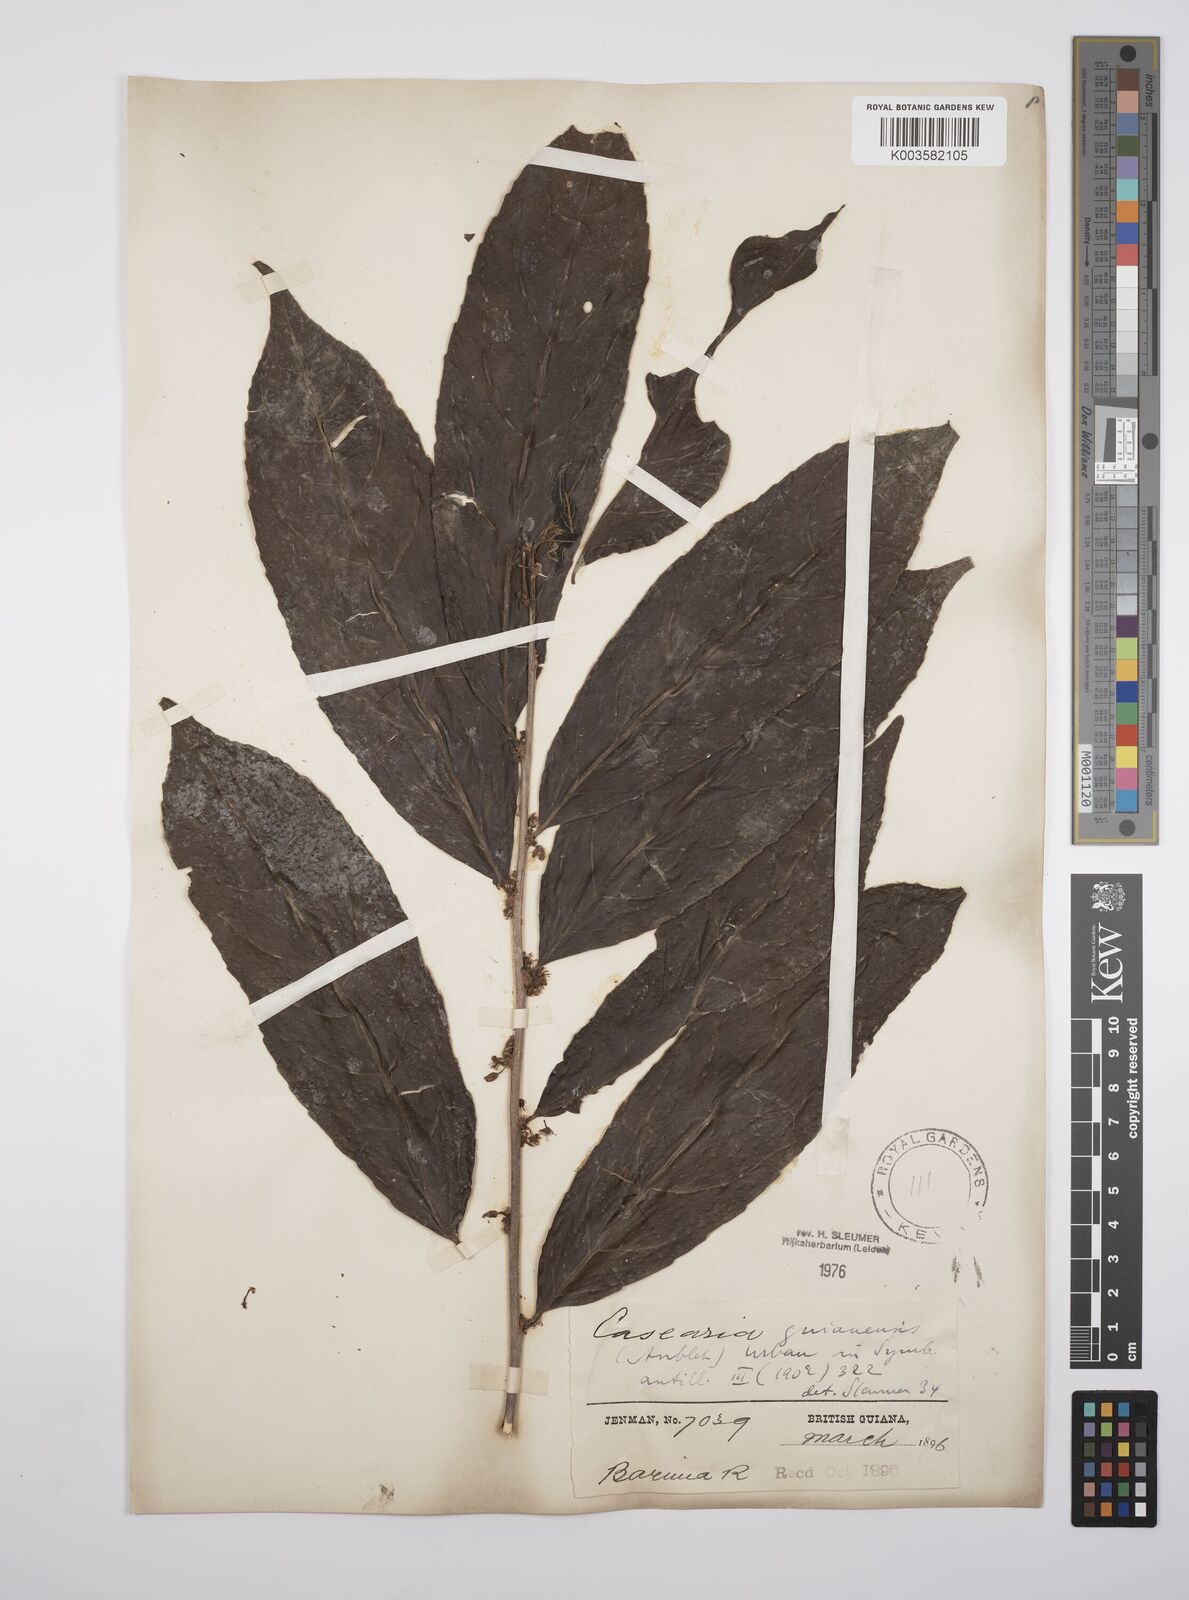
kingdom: Plantae
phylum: Tracheophyta
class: Magnoliopsida
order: Malpighiales
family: Salicaceae
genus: Casearia
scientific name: Casearia guianensis
